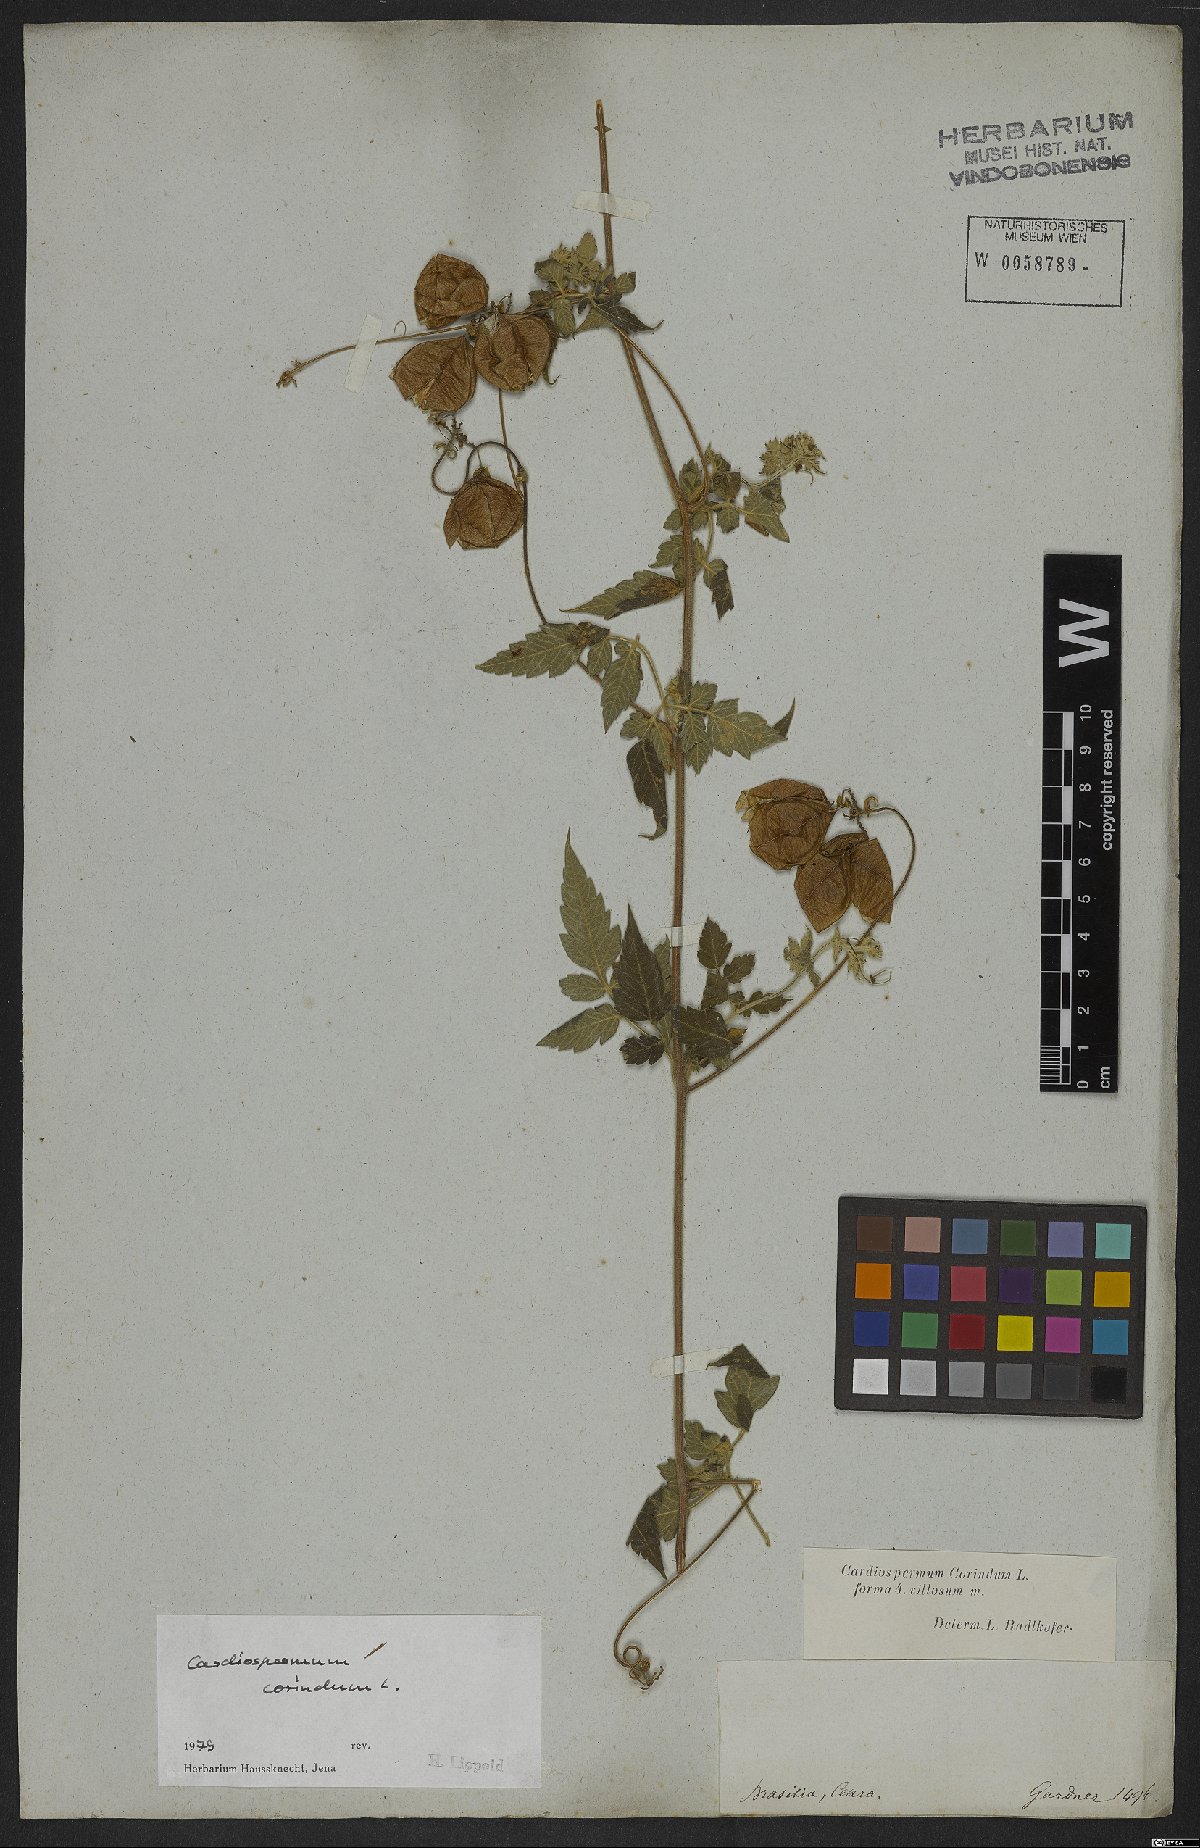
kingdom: Plantae
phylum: Tracheophyta
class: Magnoliopsida
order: Sapindales
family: Sapindaceae
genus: Cardiospermum
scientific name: Cardiospermum corindum
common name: Faux persil
